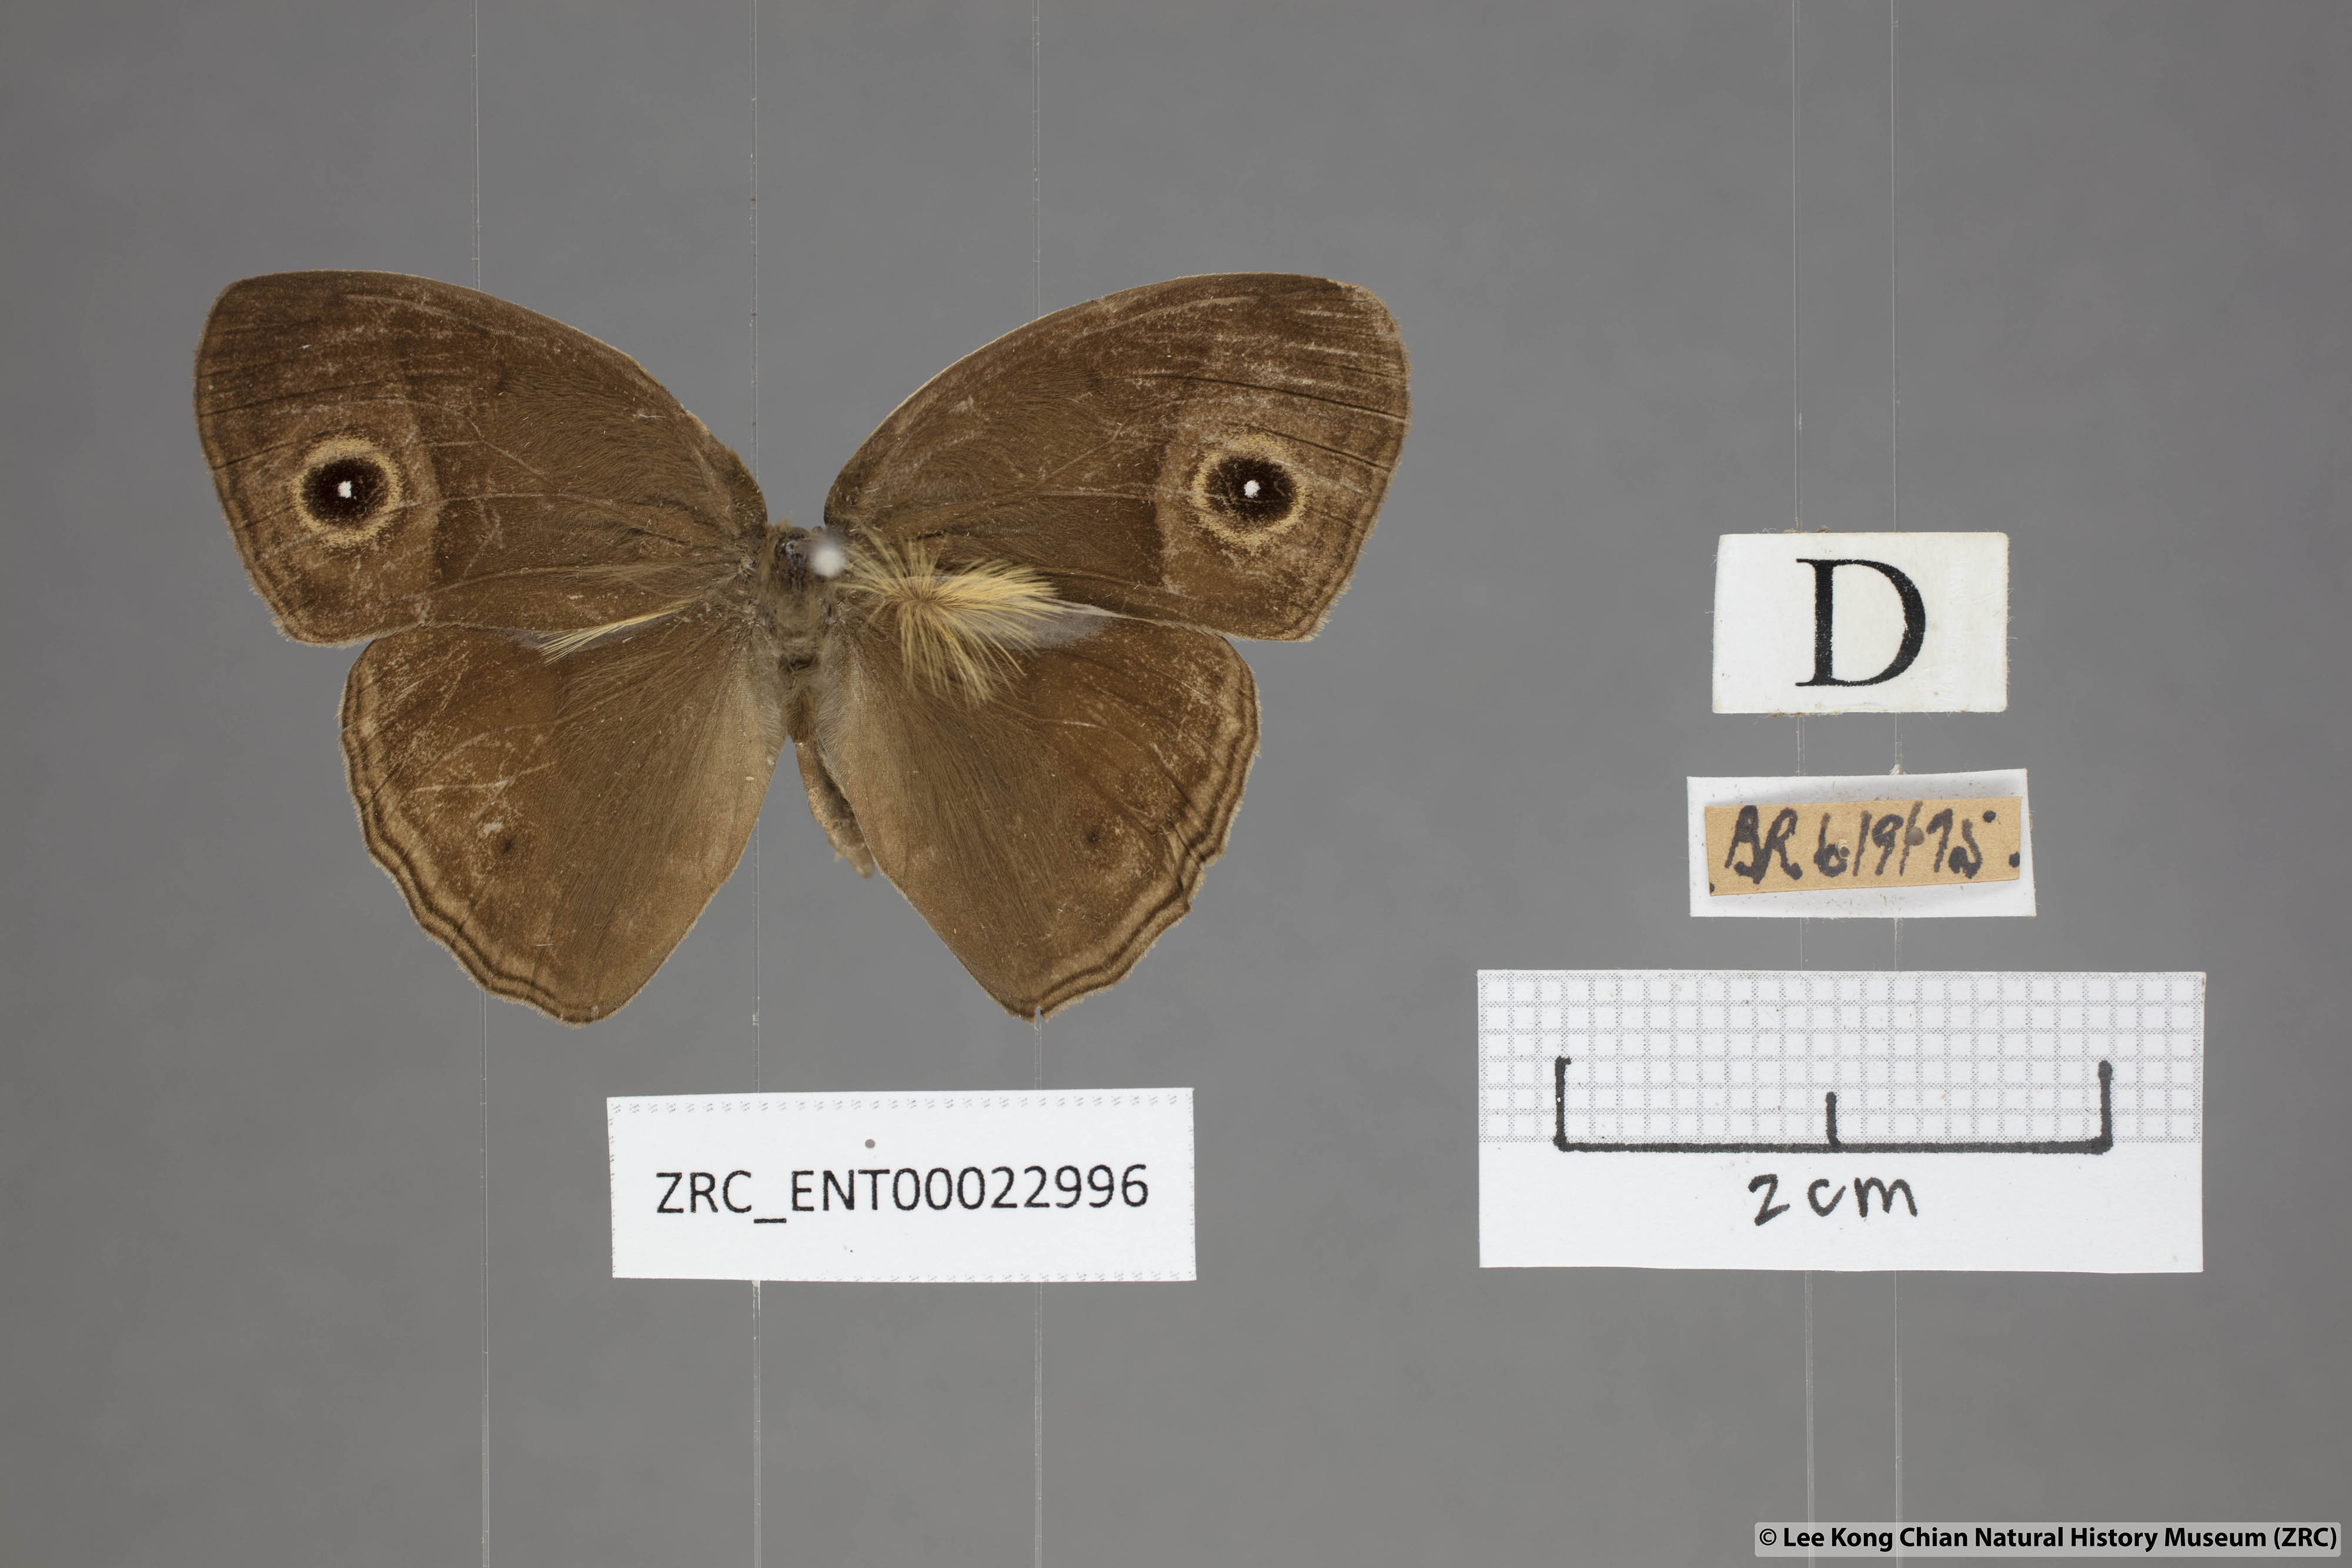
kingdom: Animalia
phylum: Arthropoda
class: Insecta
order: Lepidoptera
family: Nymphalidae
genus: Mycalesis
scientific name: Mycalesis perseoides
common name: Burmese bushbrown
